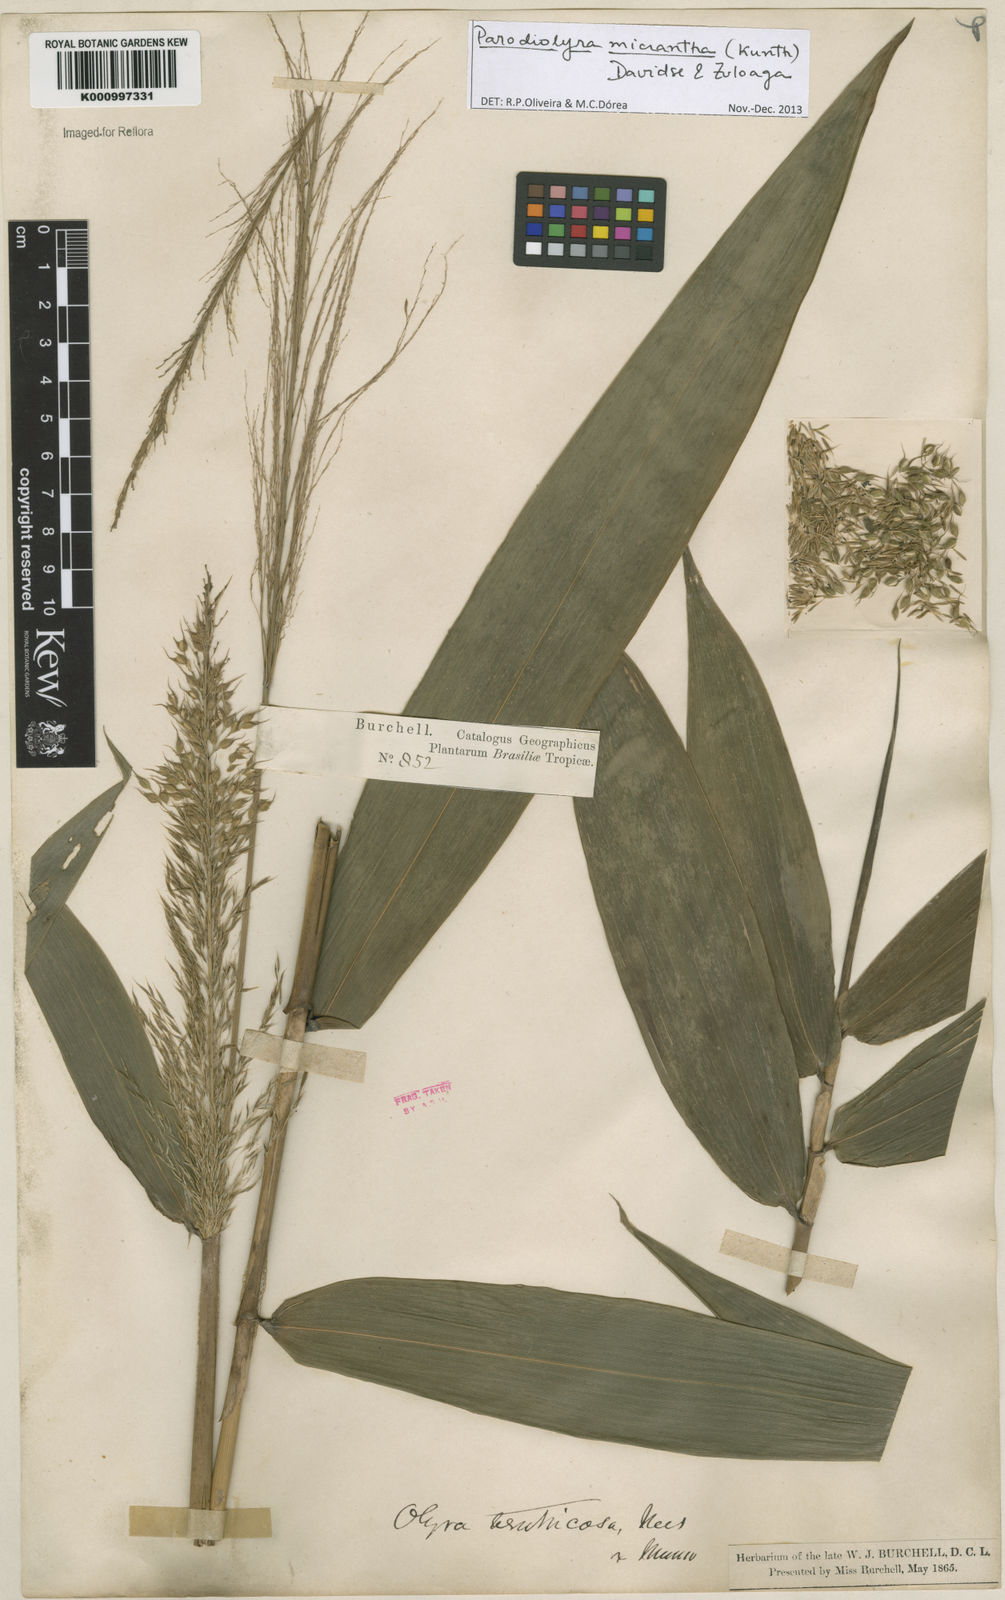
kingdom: Plantae
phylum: Tracheophyta
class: Liliopsida
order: Poales
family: Poaceae
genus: Taquara
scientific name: Taquara micrantha
